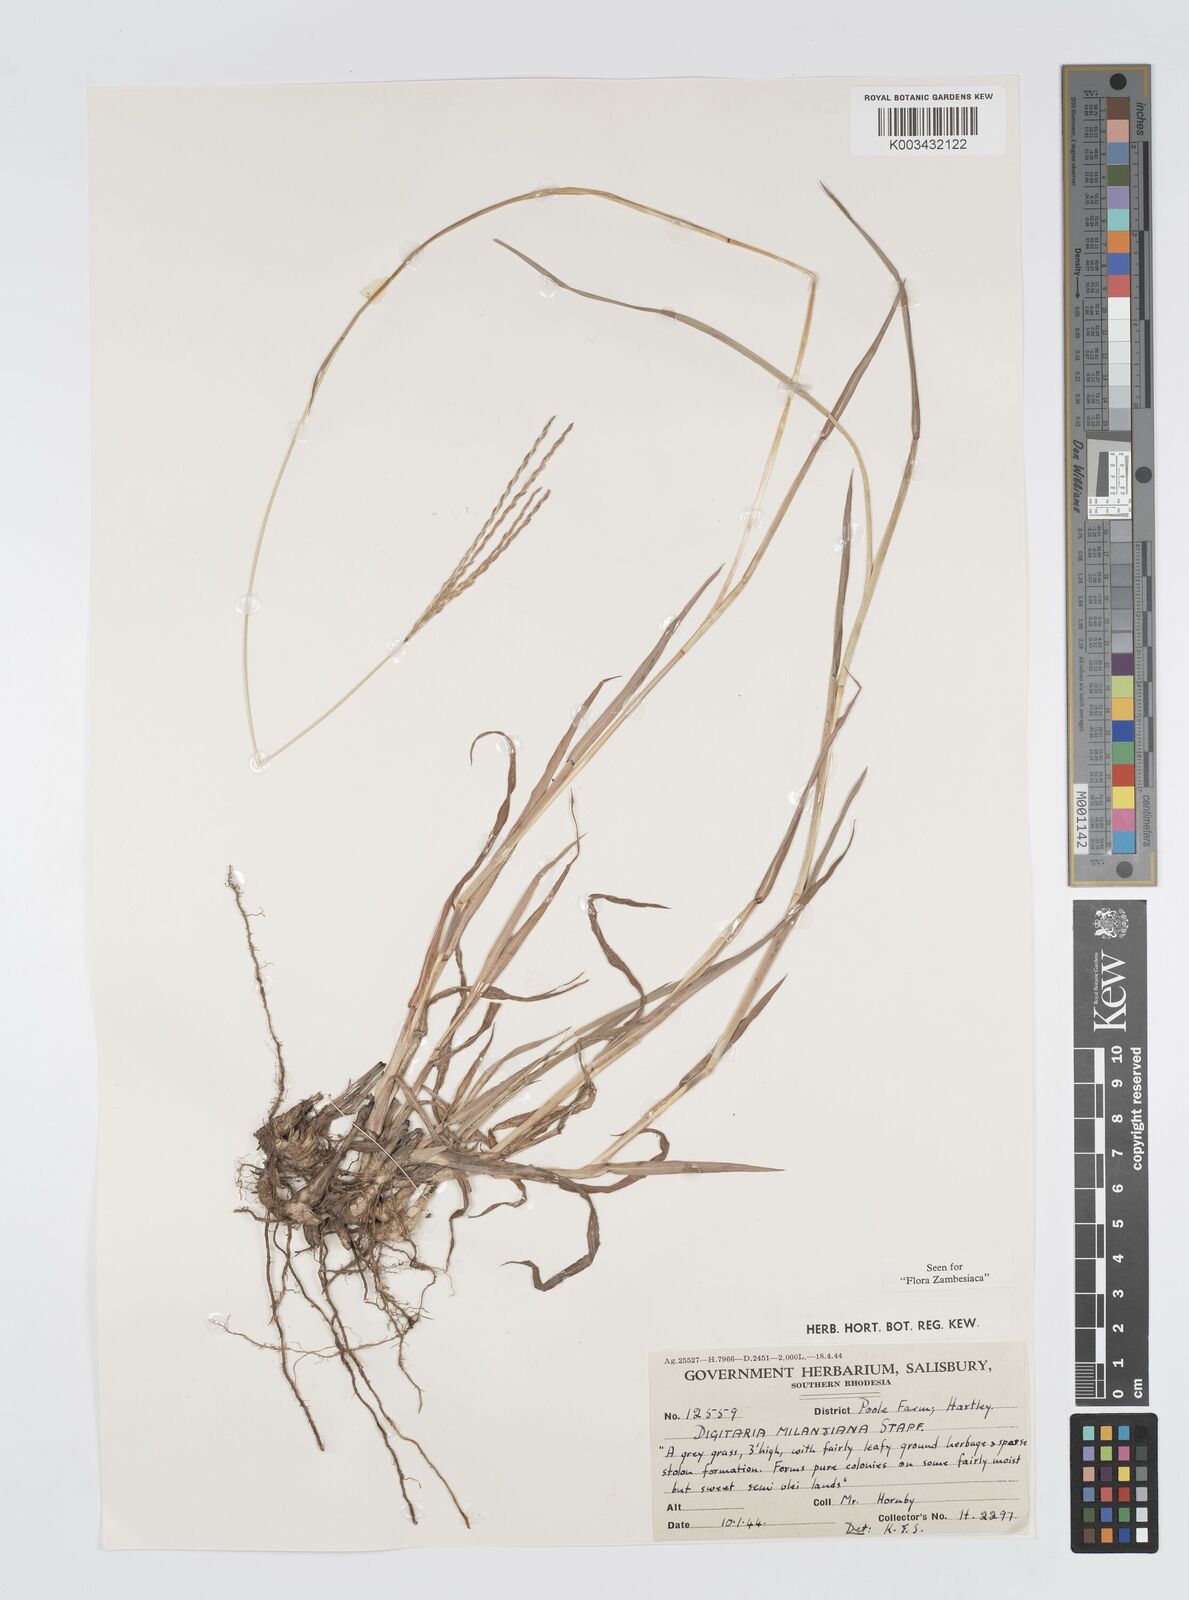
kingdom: Plantae
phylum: Tracheophyta
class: Liliopsida
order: Poales
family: Poaceae
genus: Digitaria
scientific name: Digitaria milanjiana
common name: Madagascar crabgrass
